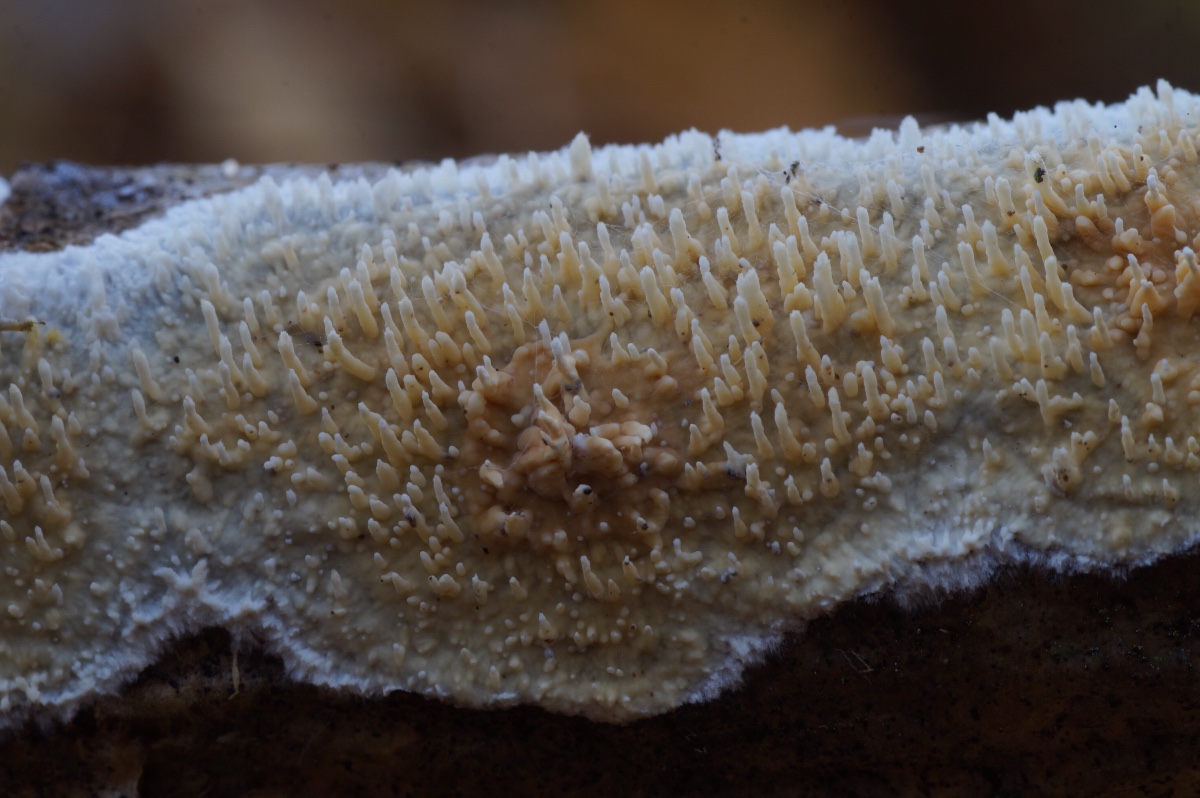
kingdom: Fungi
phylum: Basidiomycota
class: Agaricomycetes
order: Hymenochaetales
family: Schizoporaceae
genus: Xylodon
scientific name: Xylodon radula
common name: grovtandet kalkskind
